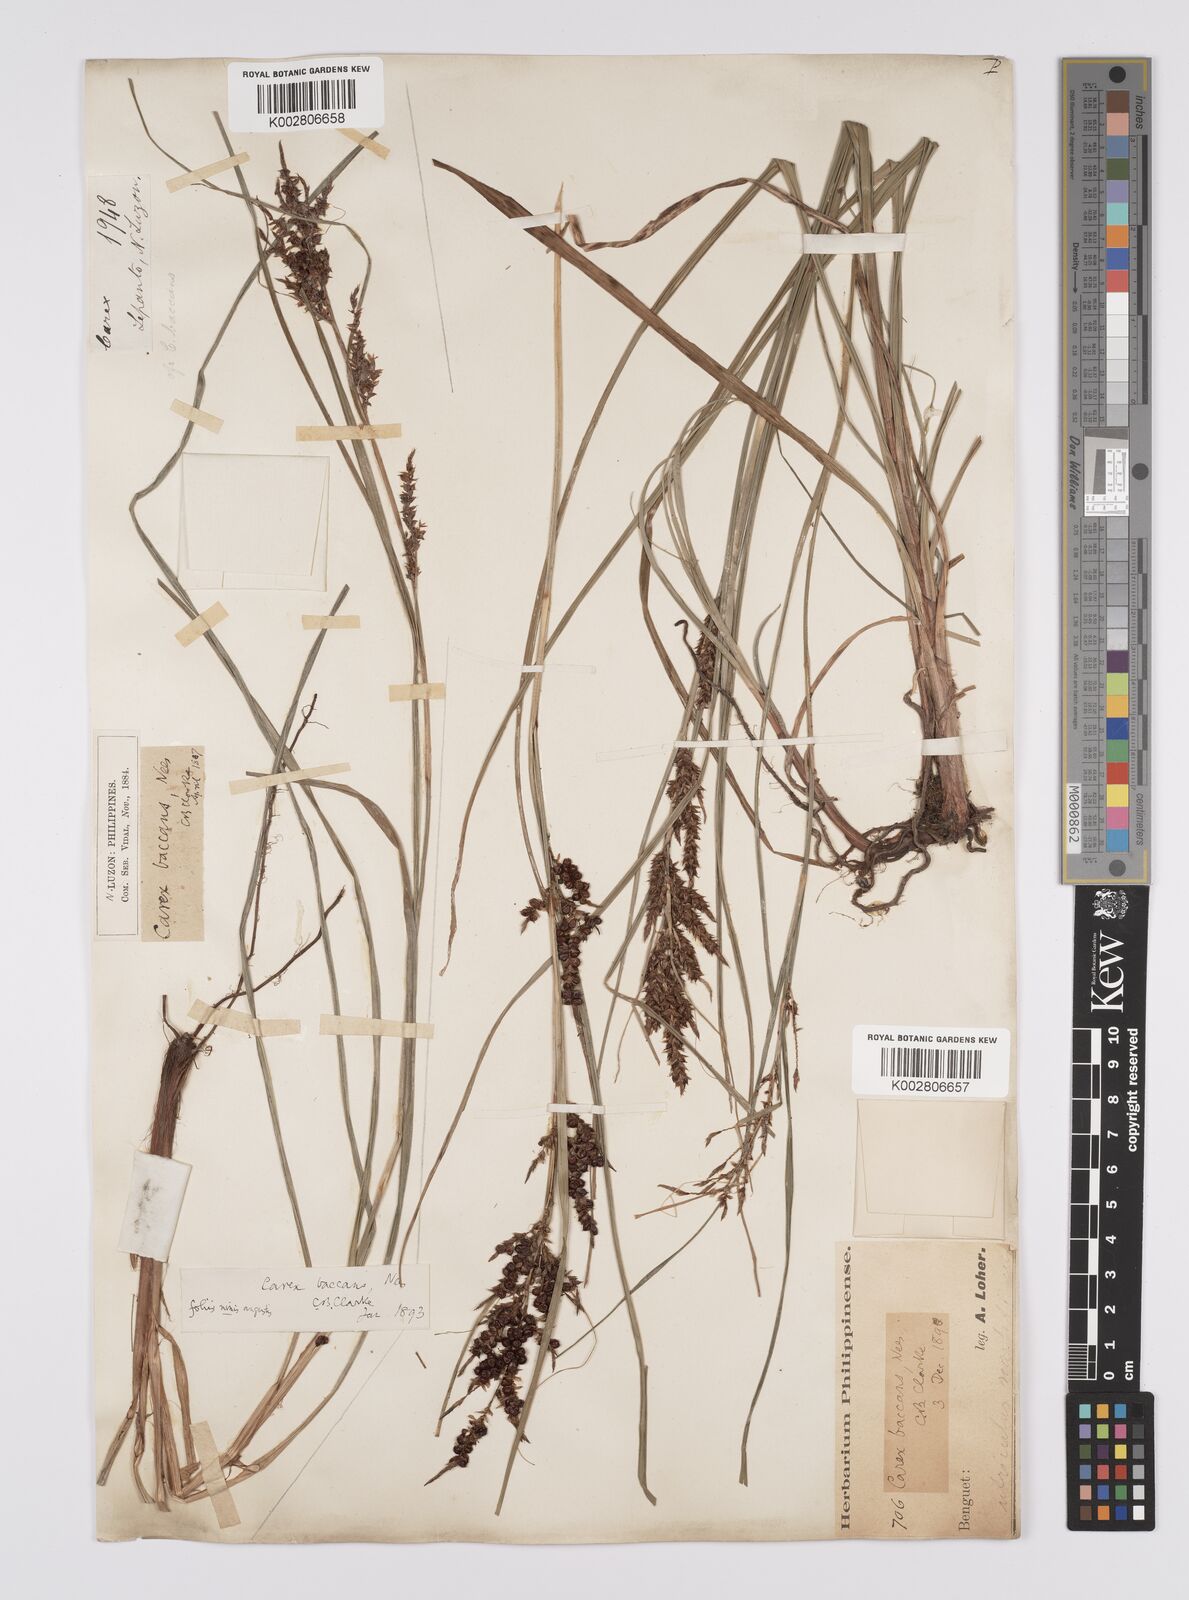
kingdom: Plantae
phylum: Tracheophyta
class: Liliopsida
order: Poales
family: Cyperaceae
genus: Carex
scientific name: Carex baccans
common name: Crimson seeded sedge
